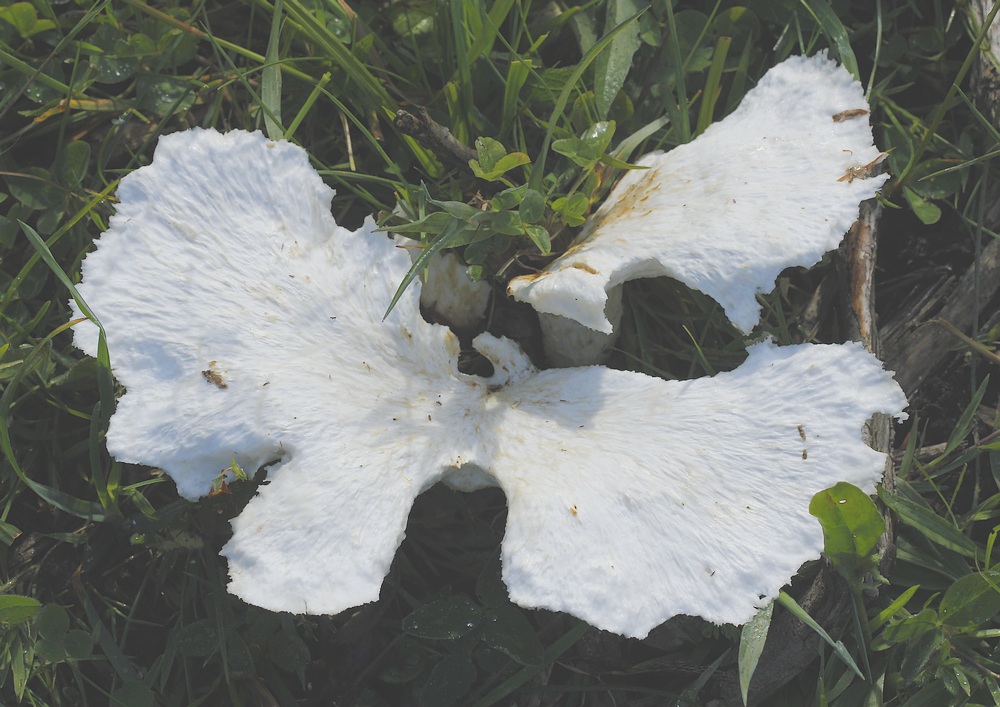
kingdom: Fungi
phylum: Basidiomycota
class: Agaricomycetes
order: Polyporales
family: Polyporaceae
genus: Polyporus
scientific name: Polyporus tuberaster
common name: knoldet stilkporesvamp
